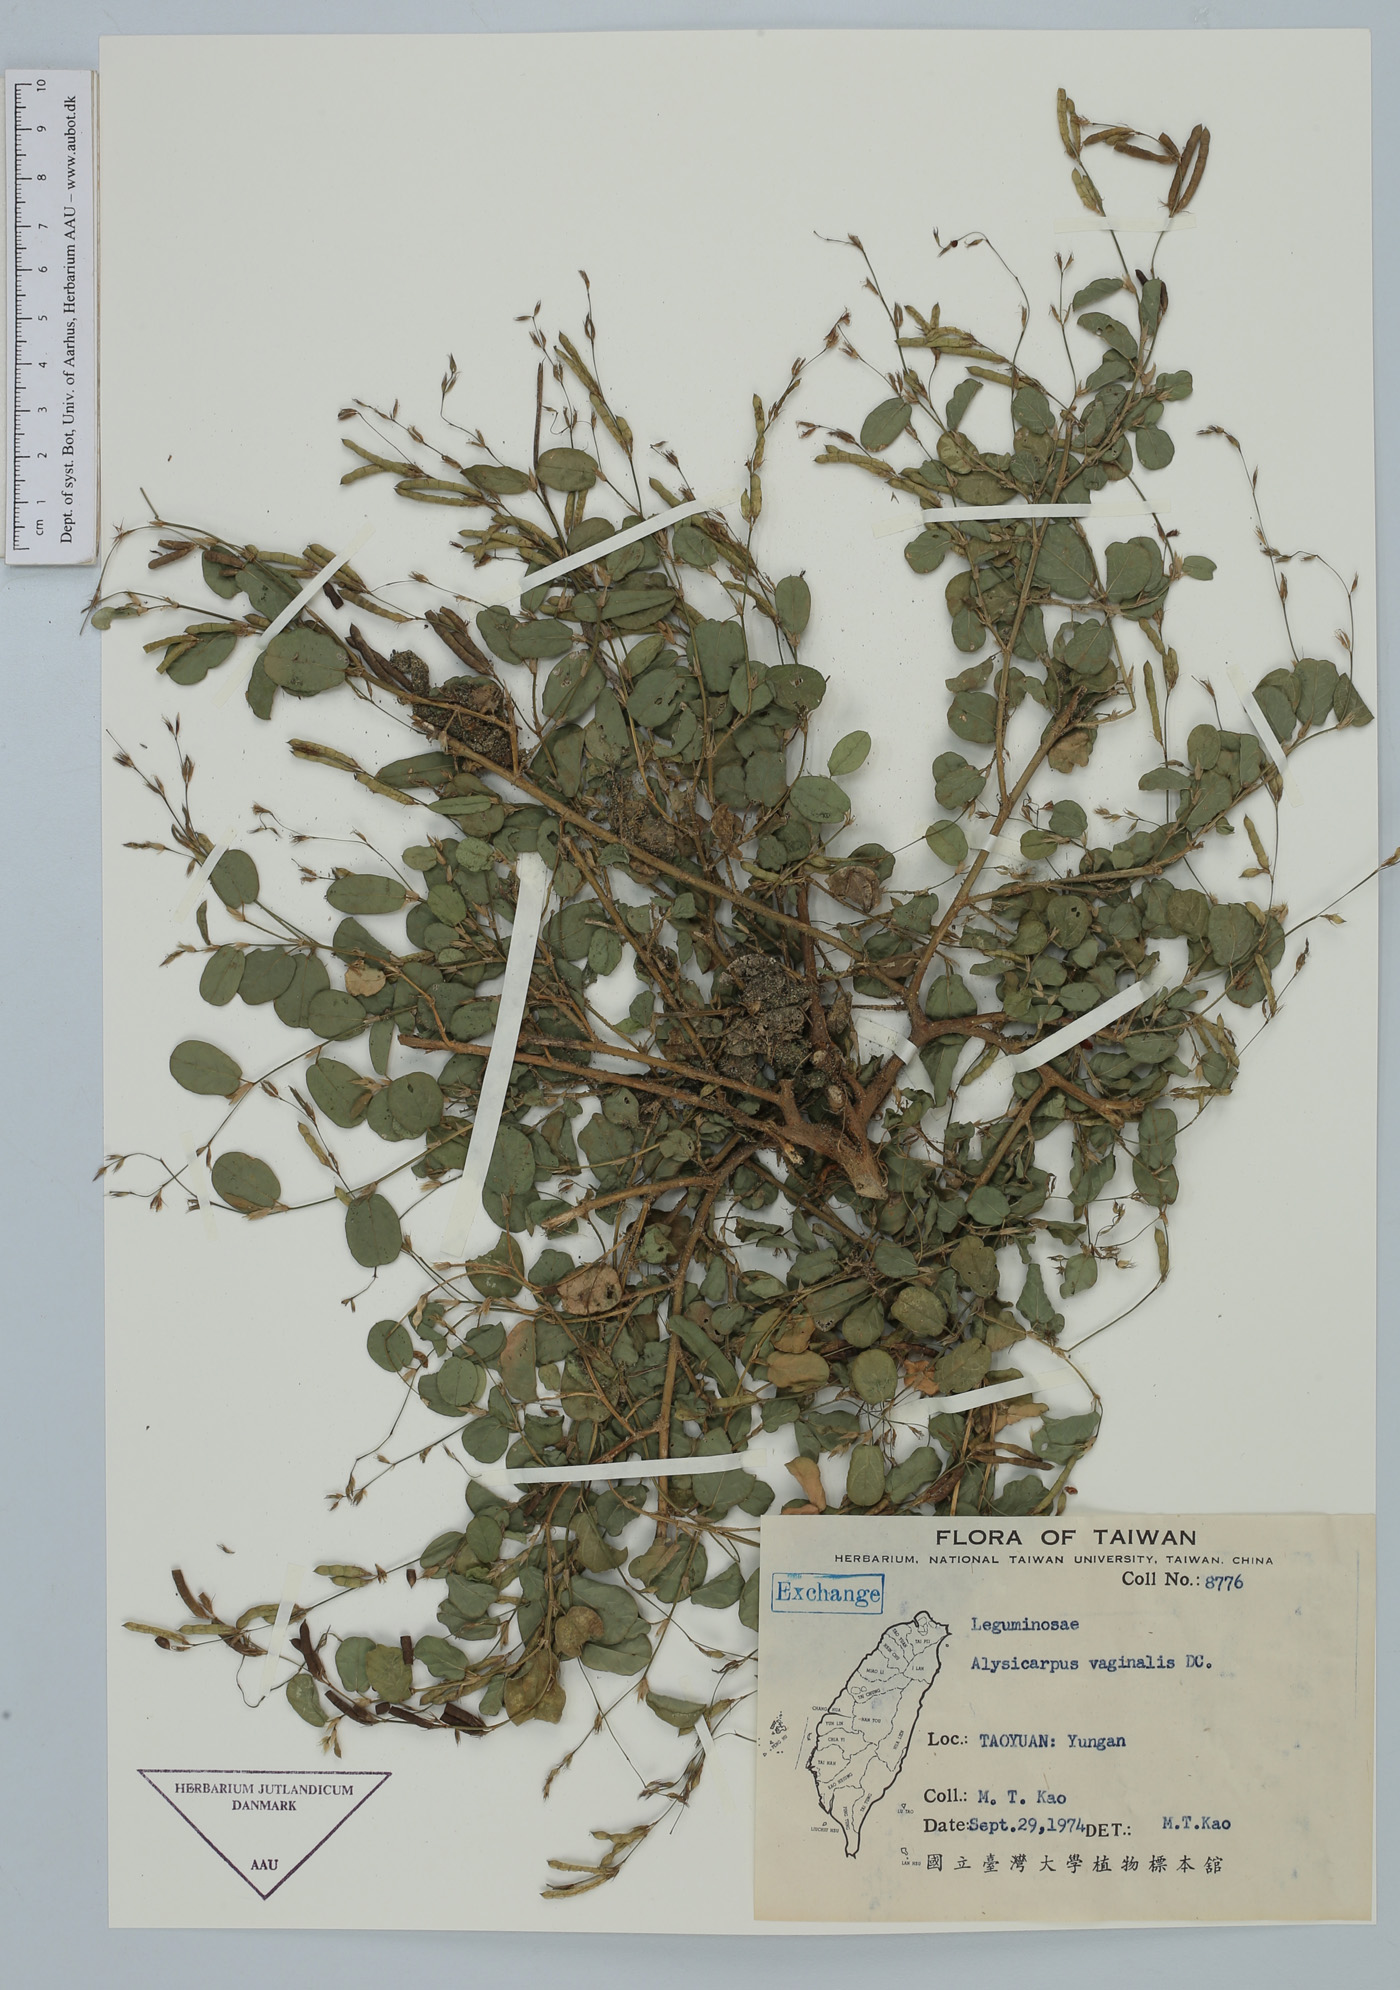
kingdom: Plantae
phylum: Tracheophyta
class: Magnoliopsida
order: Fabales
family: Fabaceae
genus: Alysicarpus
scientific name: Alysicarpus vaginalis
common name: White moneywort
